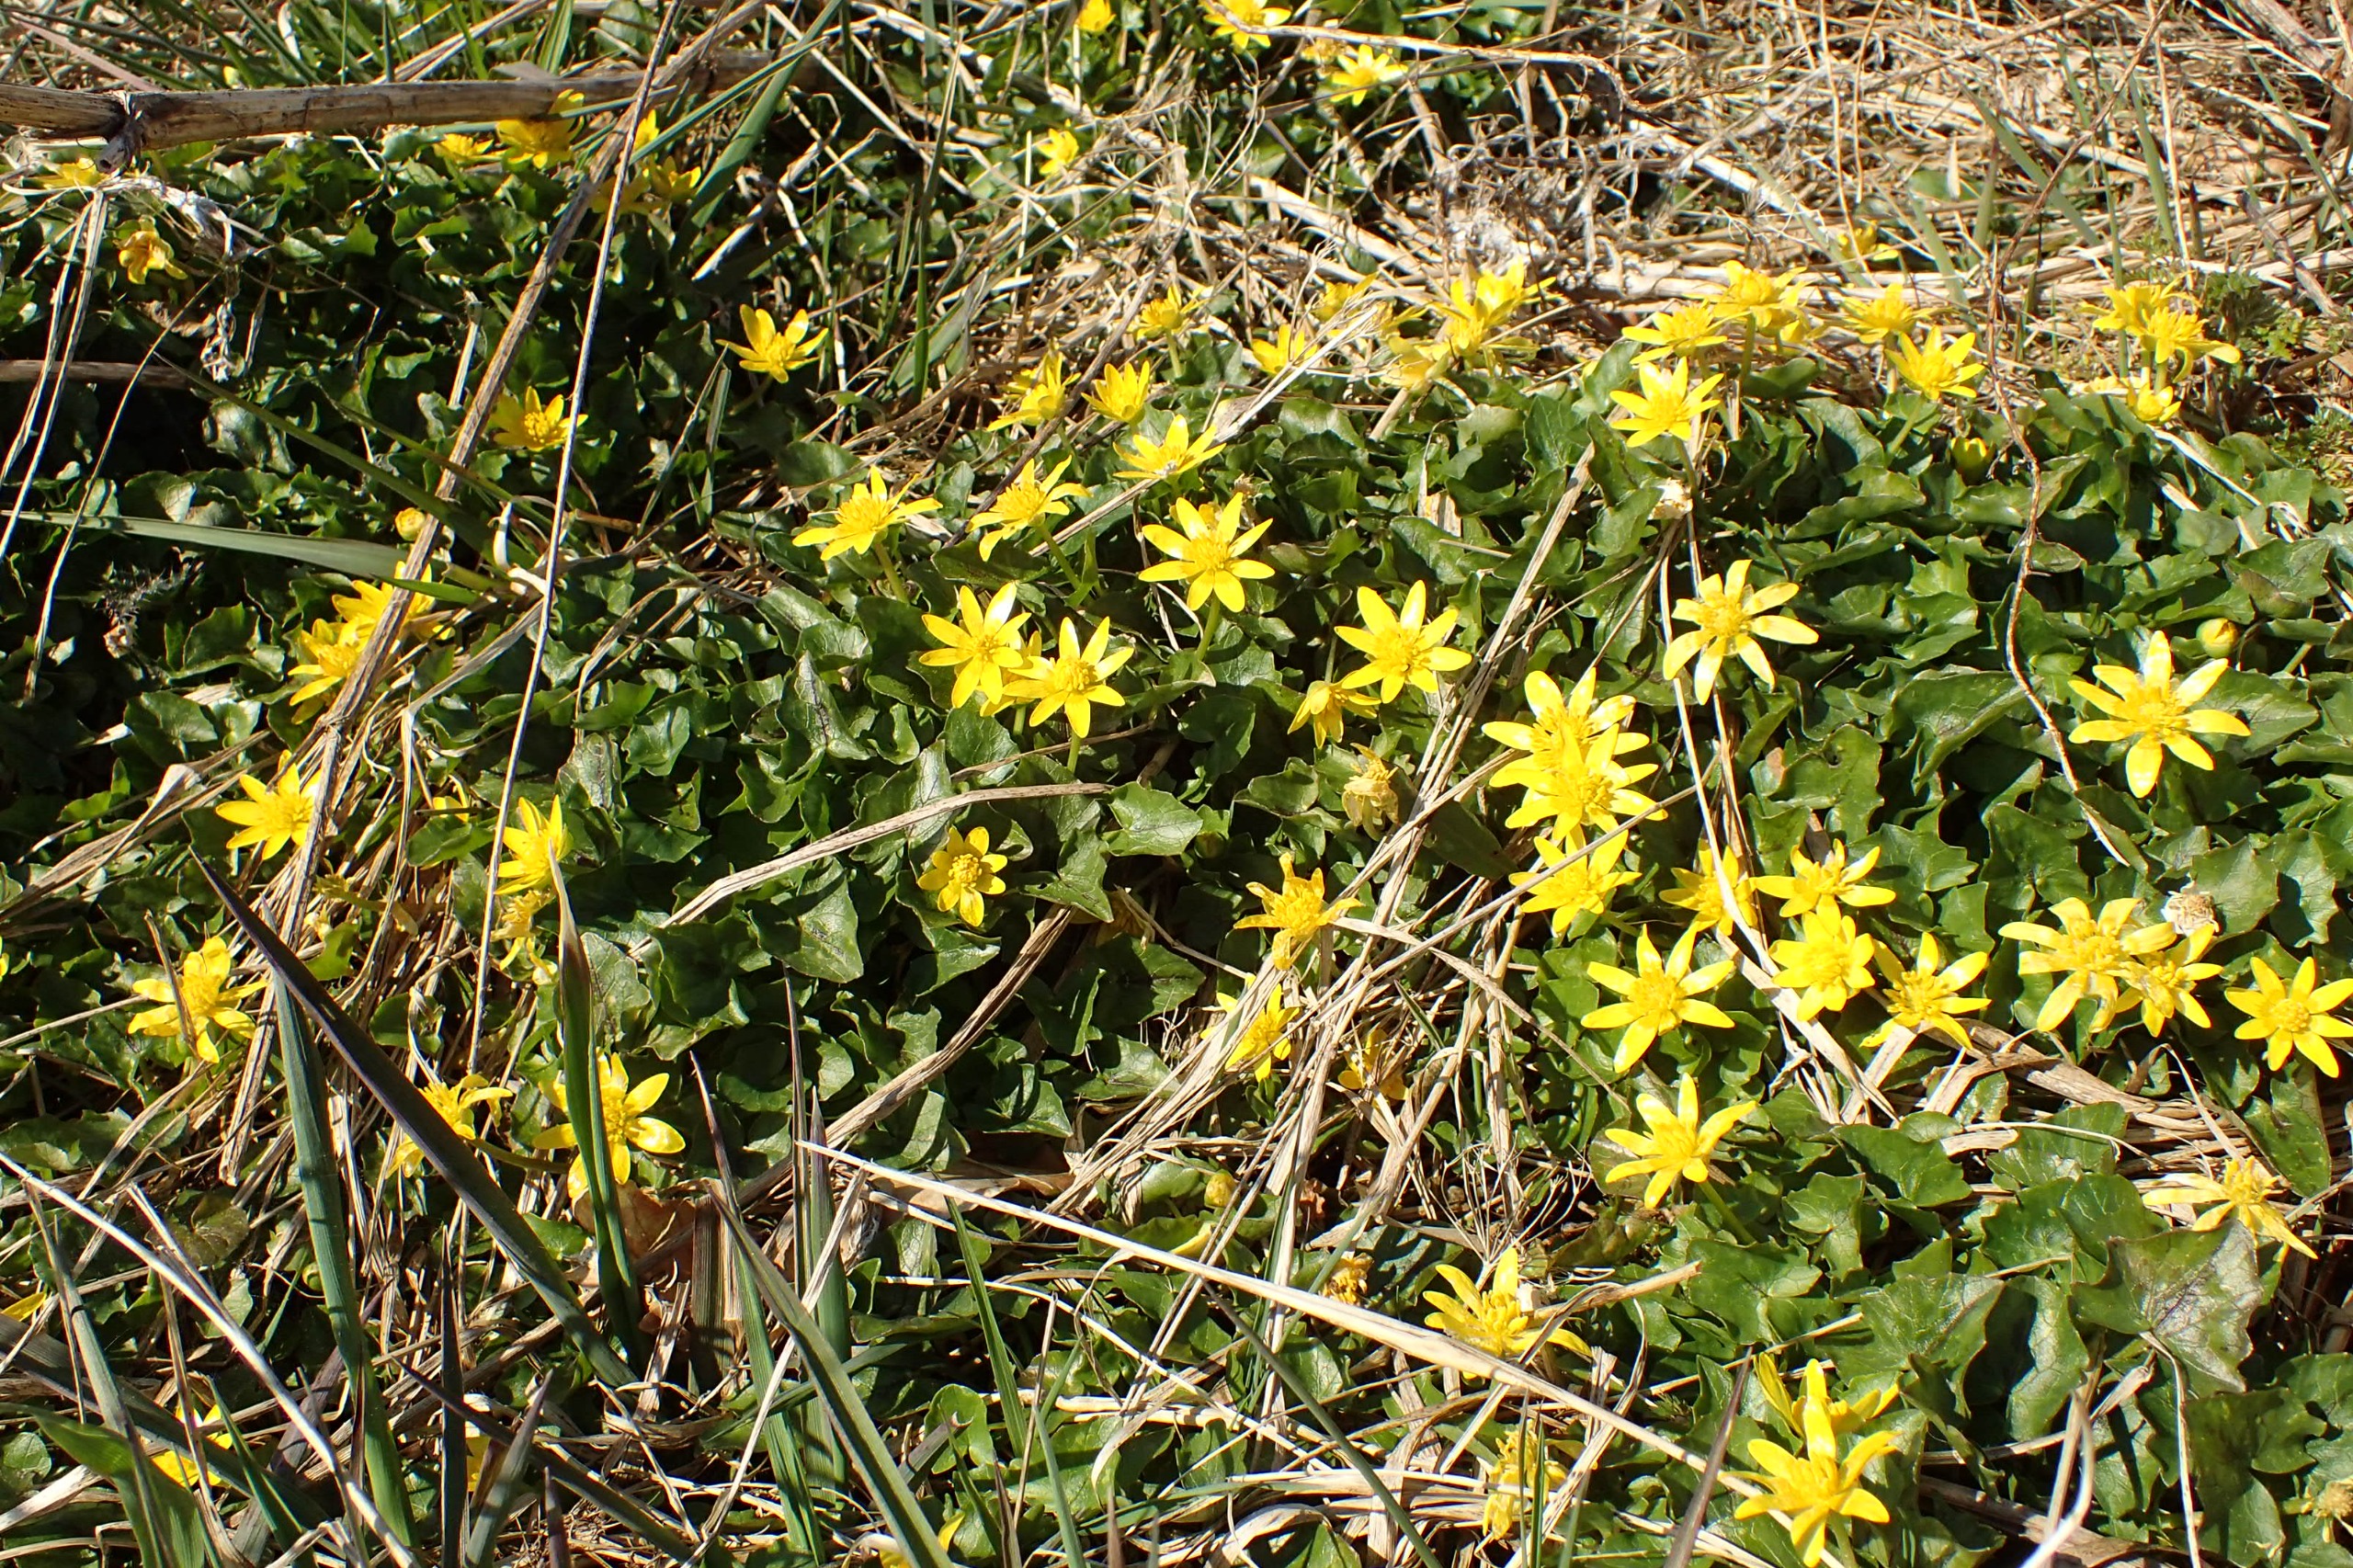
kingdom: Plantae
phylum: Tracheophyta
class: Magnoliopsida
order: Ranunculales
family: Ranunculaceae
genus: Ficaria
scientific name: Ficaria verna
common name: Vorterod
